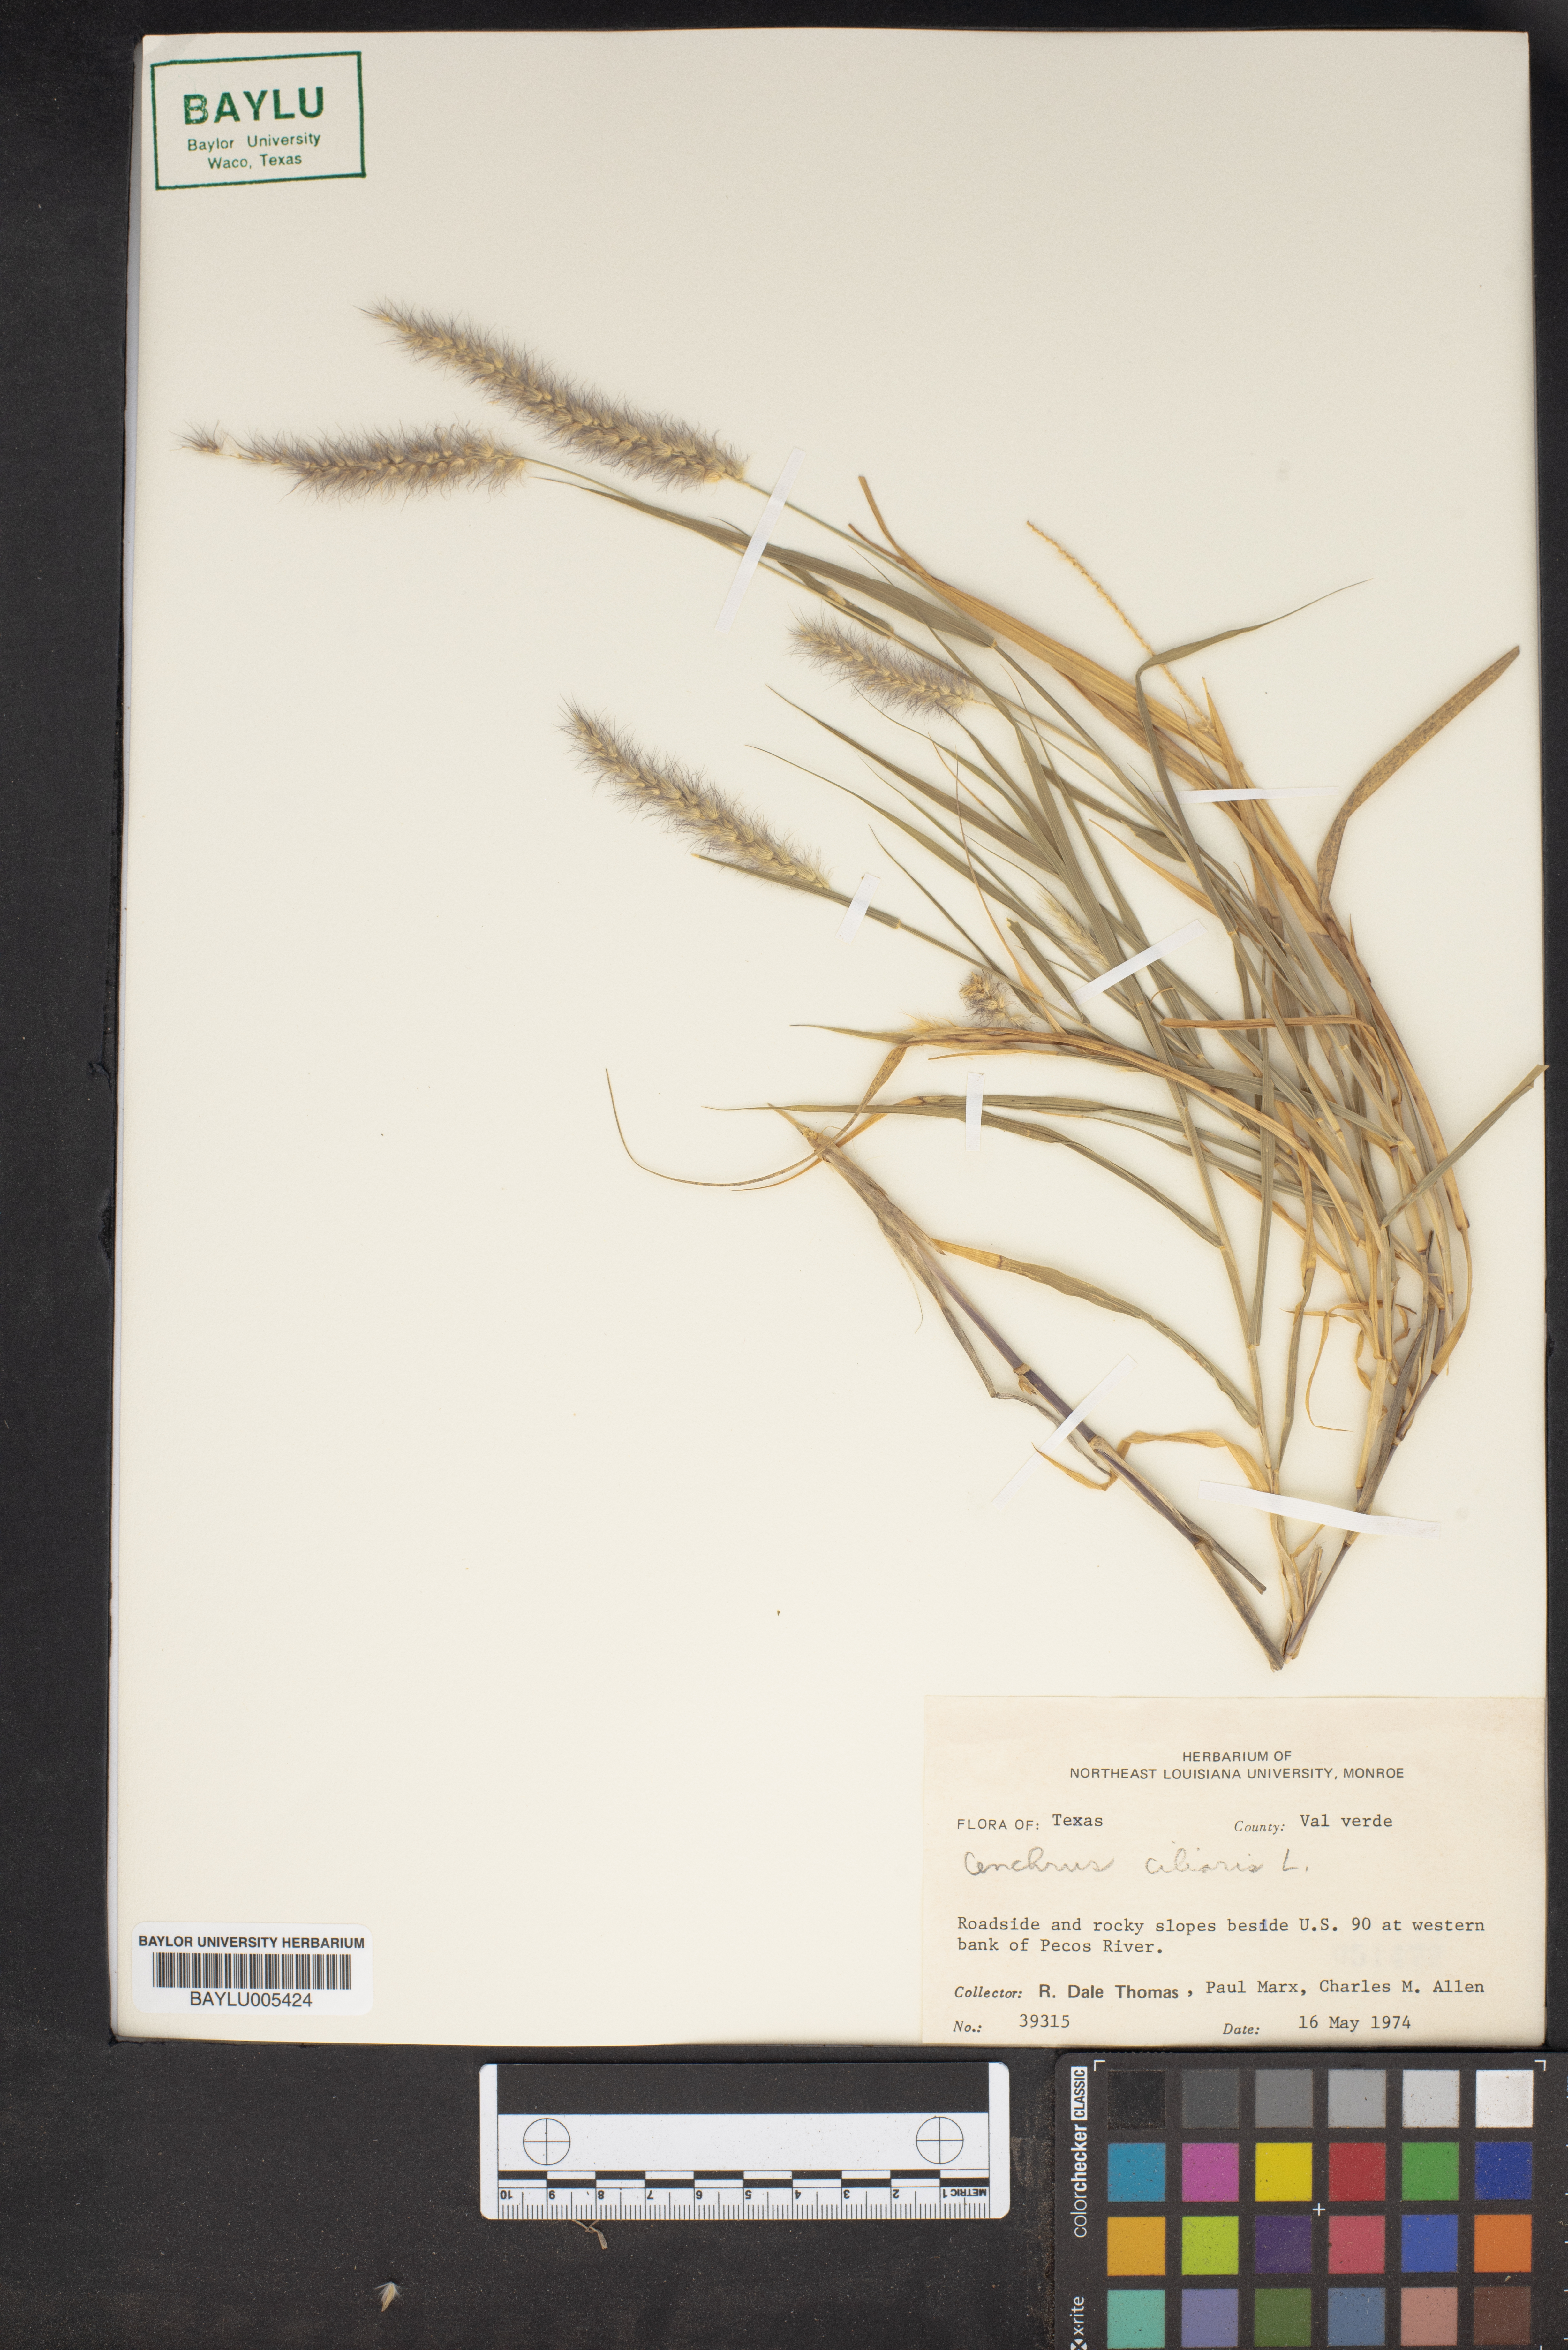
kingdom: Plantae
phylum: Tracheophyta
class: Liliopsida
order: Poales
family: Poaceae
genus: Cenchrus
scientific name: Cenchrus ciliaris
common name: Buffelgrass
